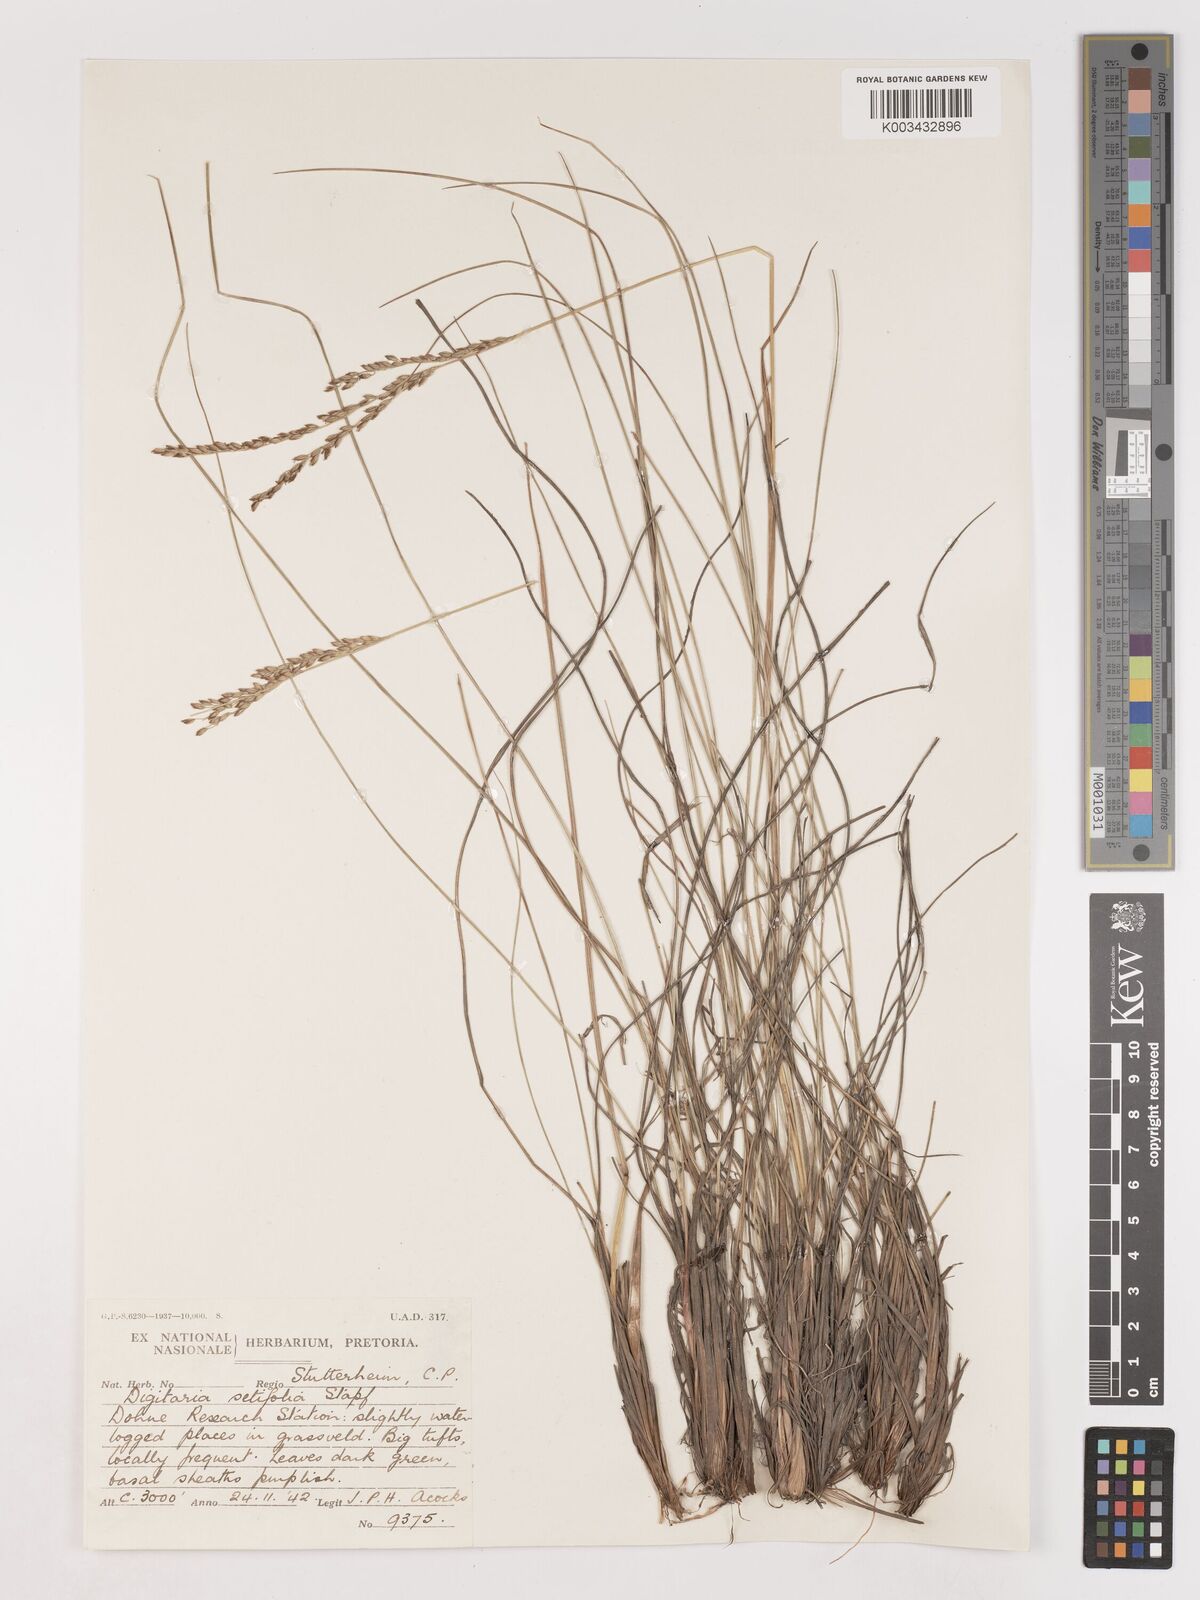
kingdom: Plantae
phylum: Tracheophyta
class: Liliopsida
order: Poales
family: Poaceae
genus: Digitaria
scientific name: Digitaria setifolia
